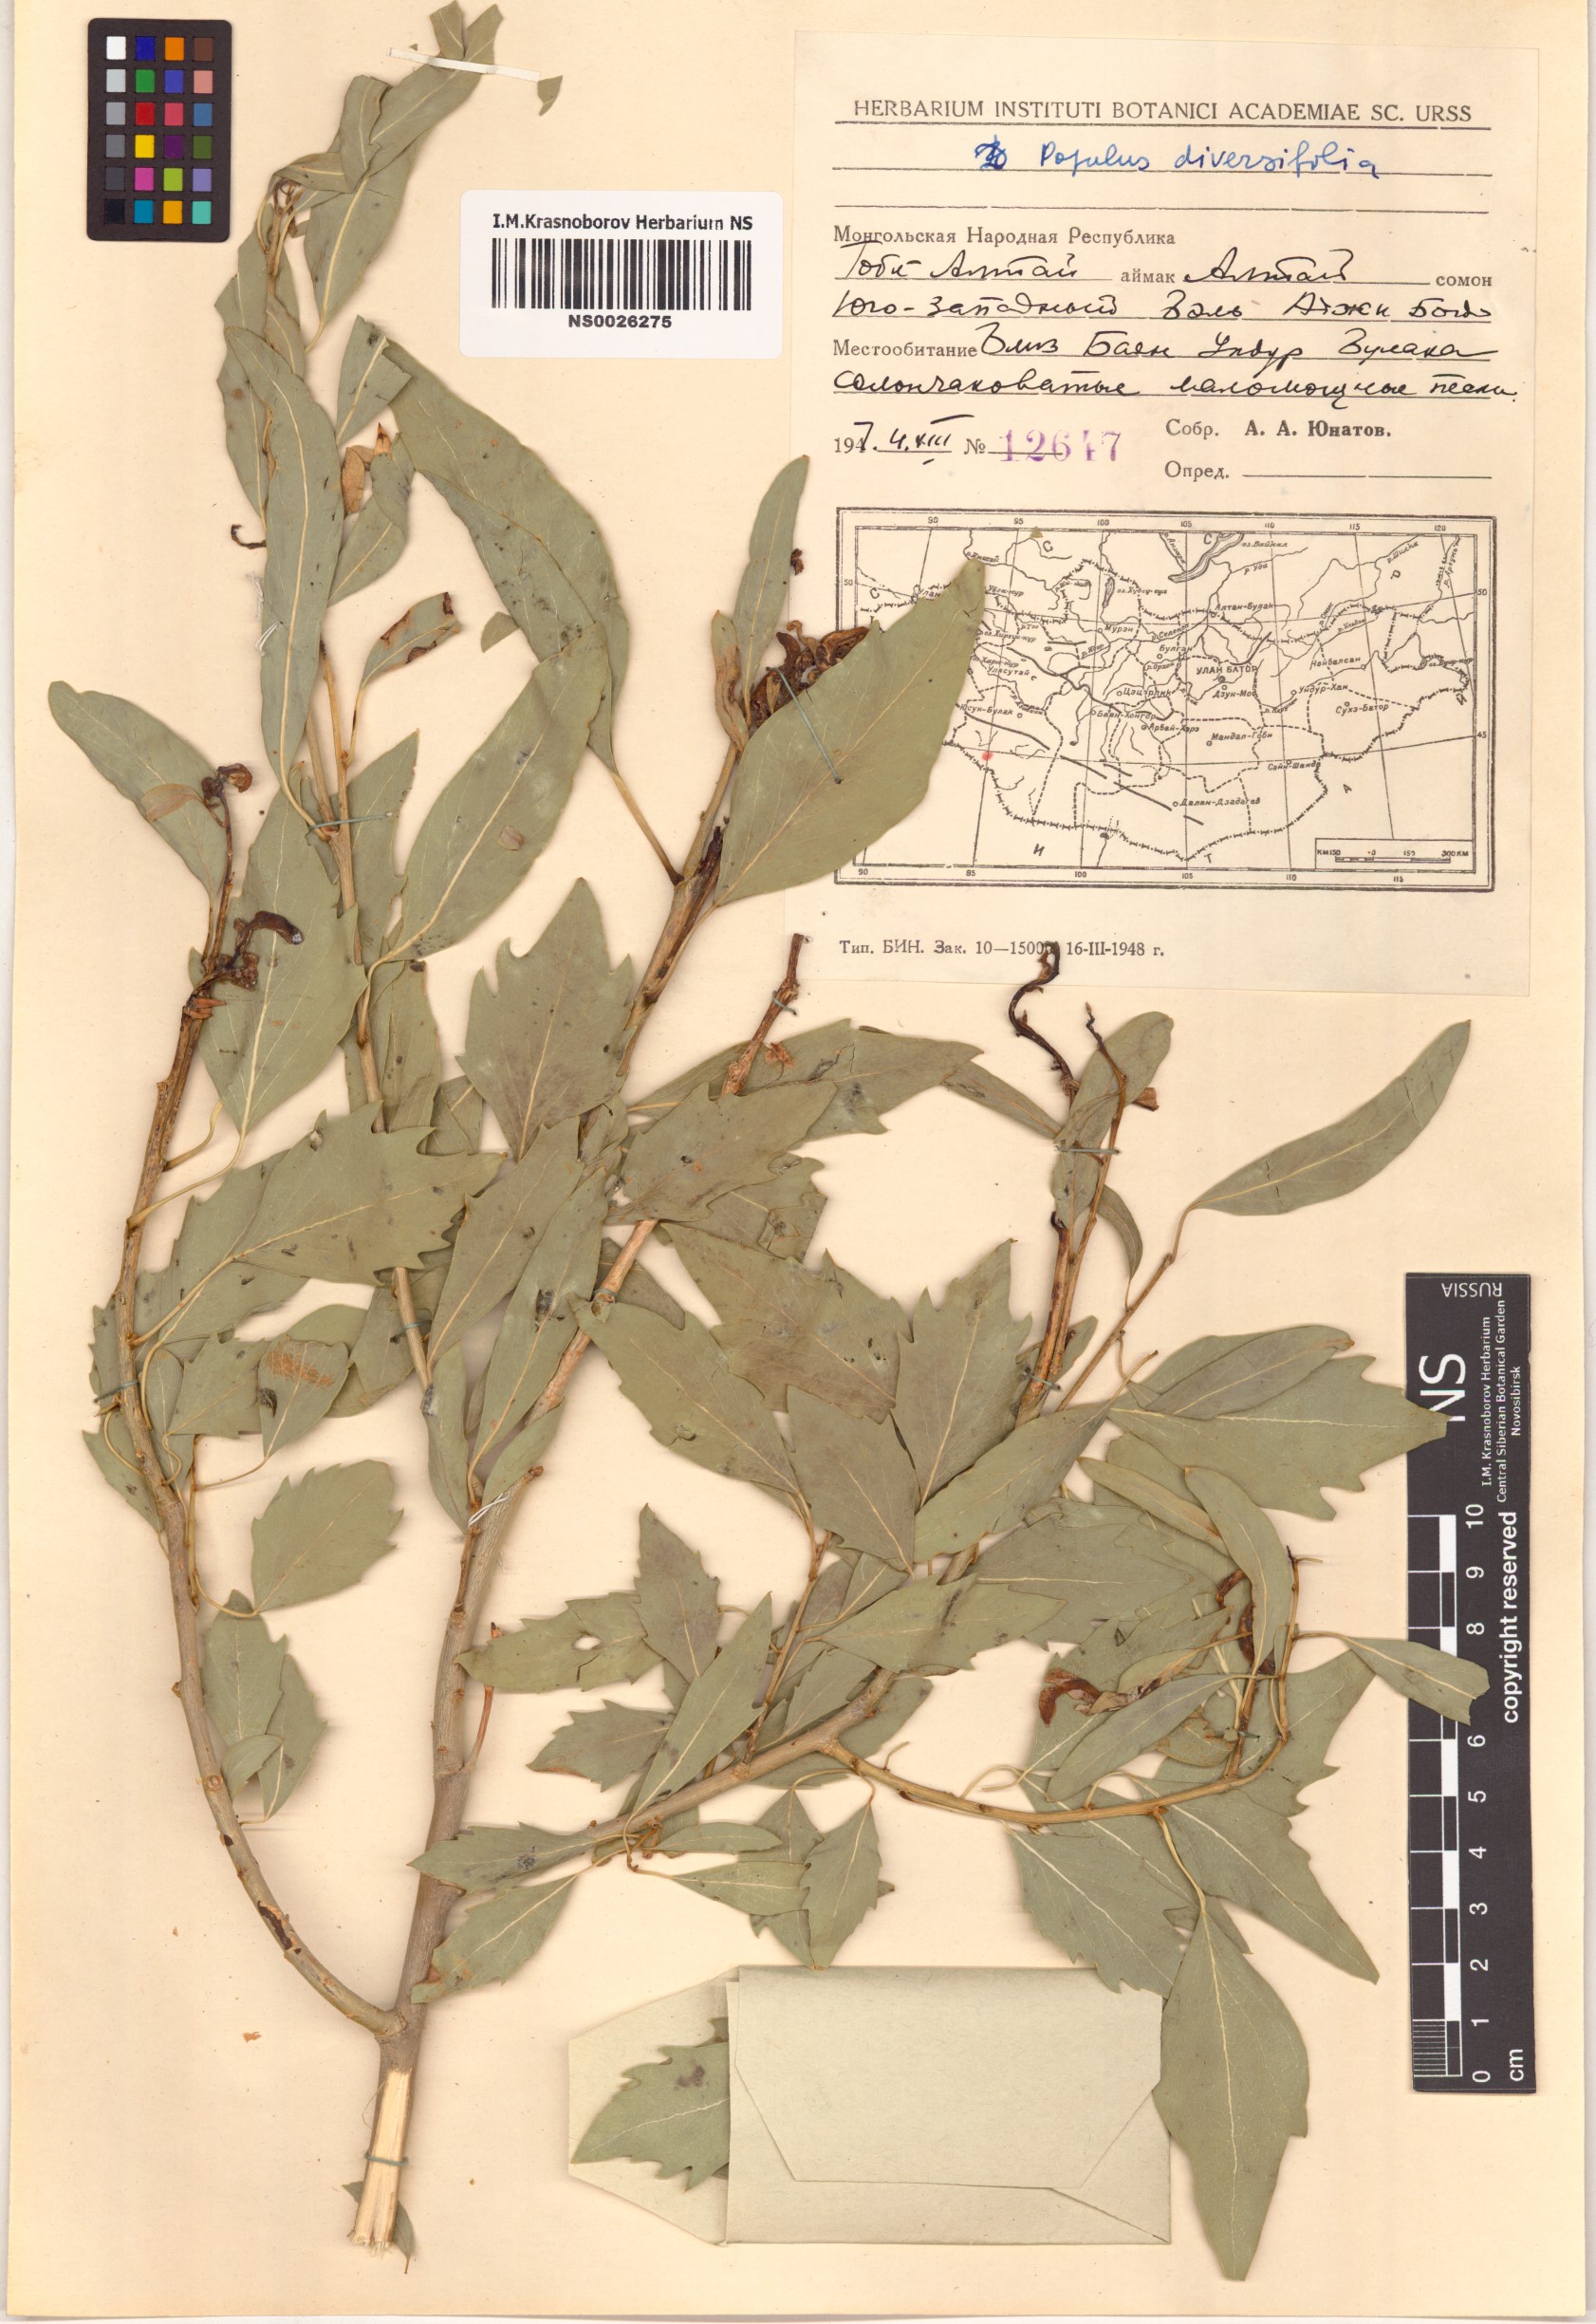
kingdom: Plantae
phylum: Tracheophyta
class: Magnoliopsida
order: Malpighiales
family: Salicaceae
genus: Populus
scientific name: Populus euphratica
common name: Euphrates poplar
